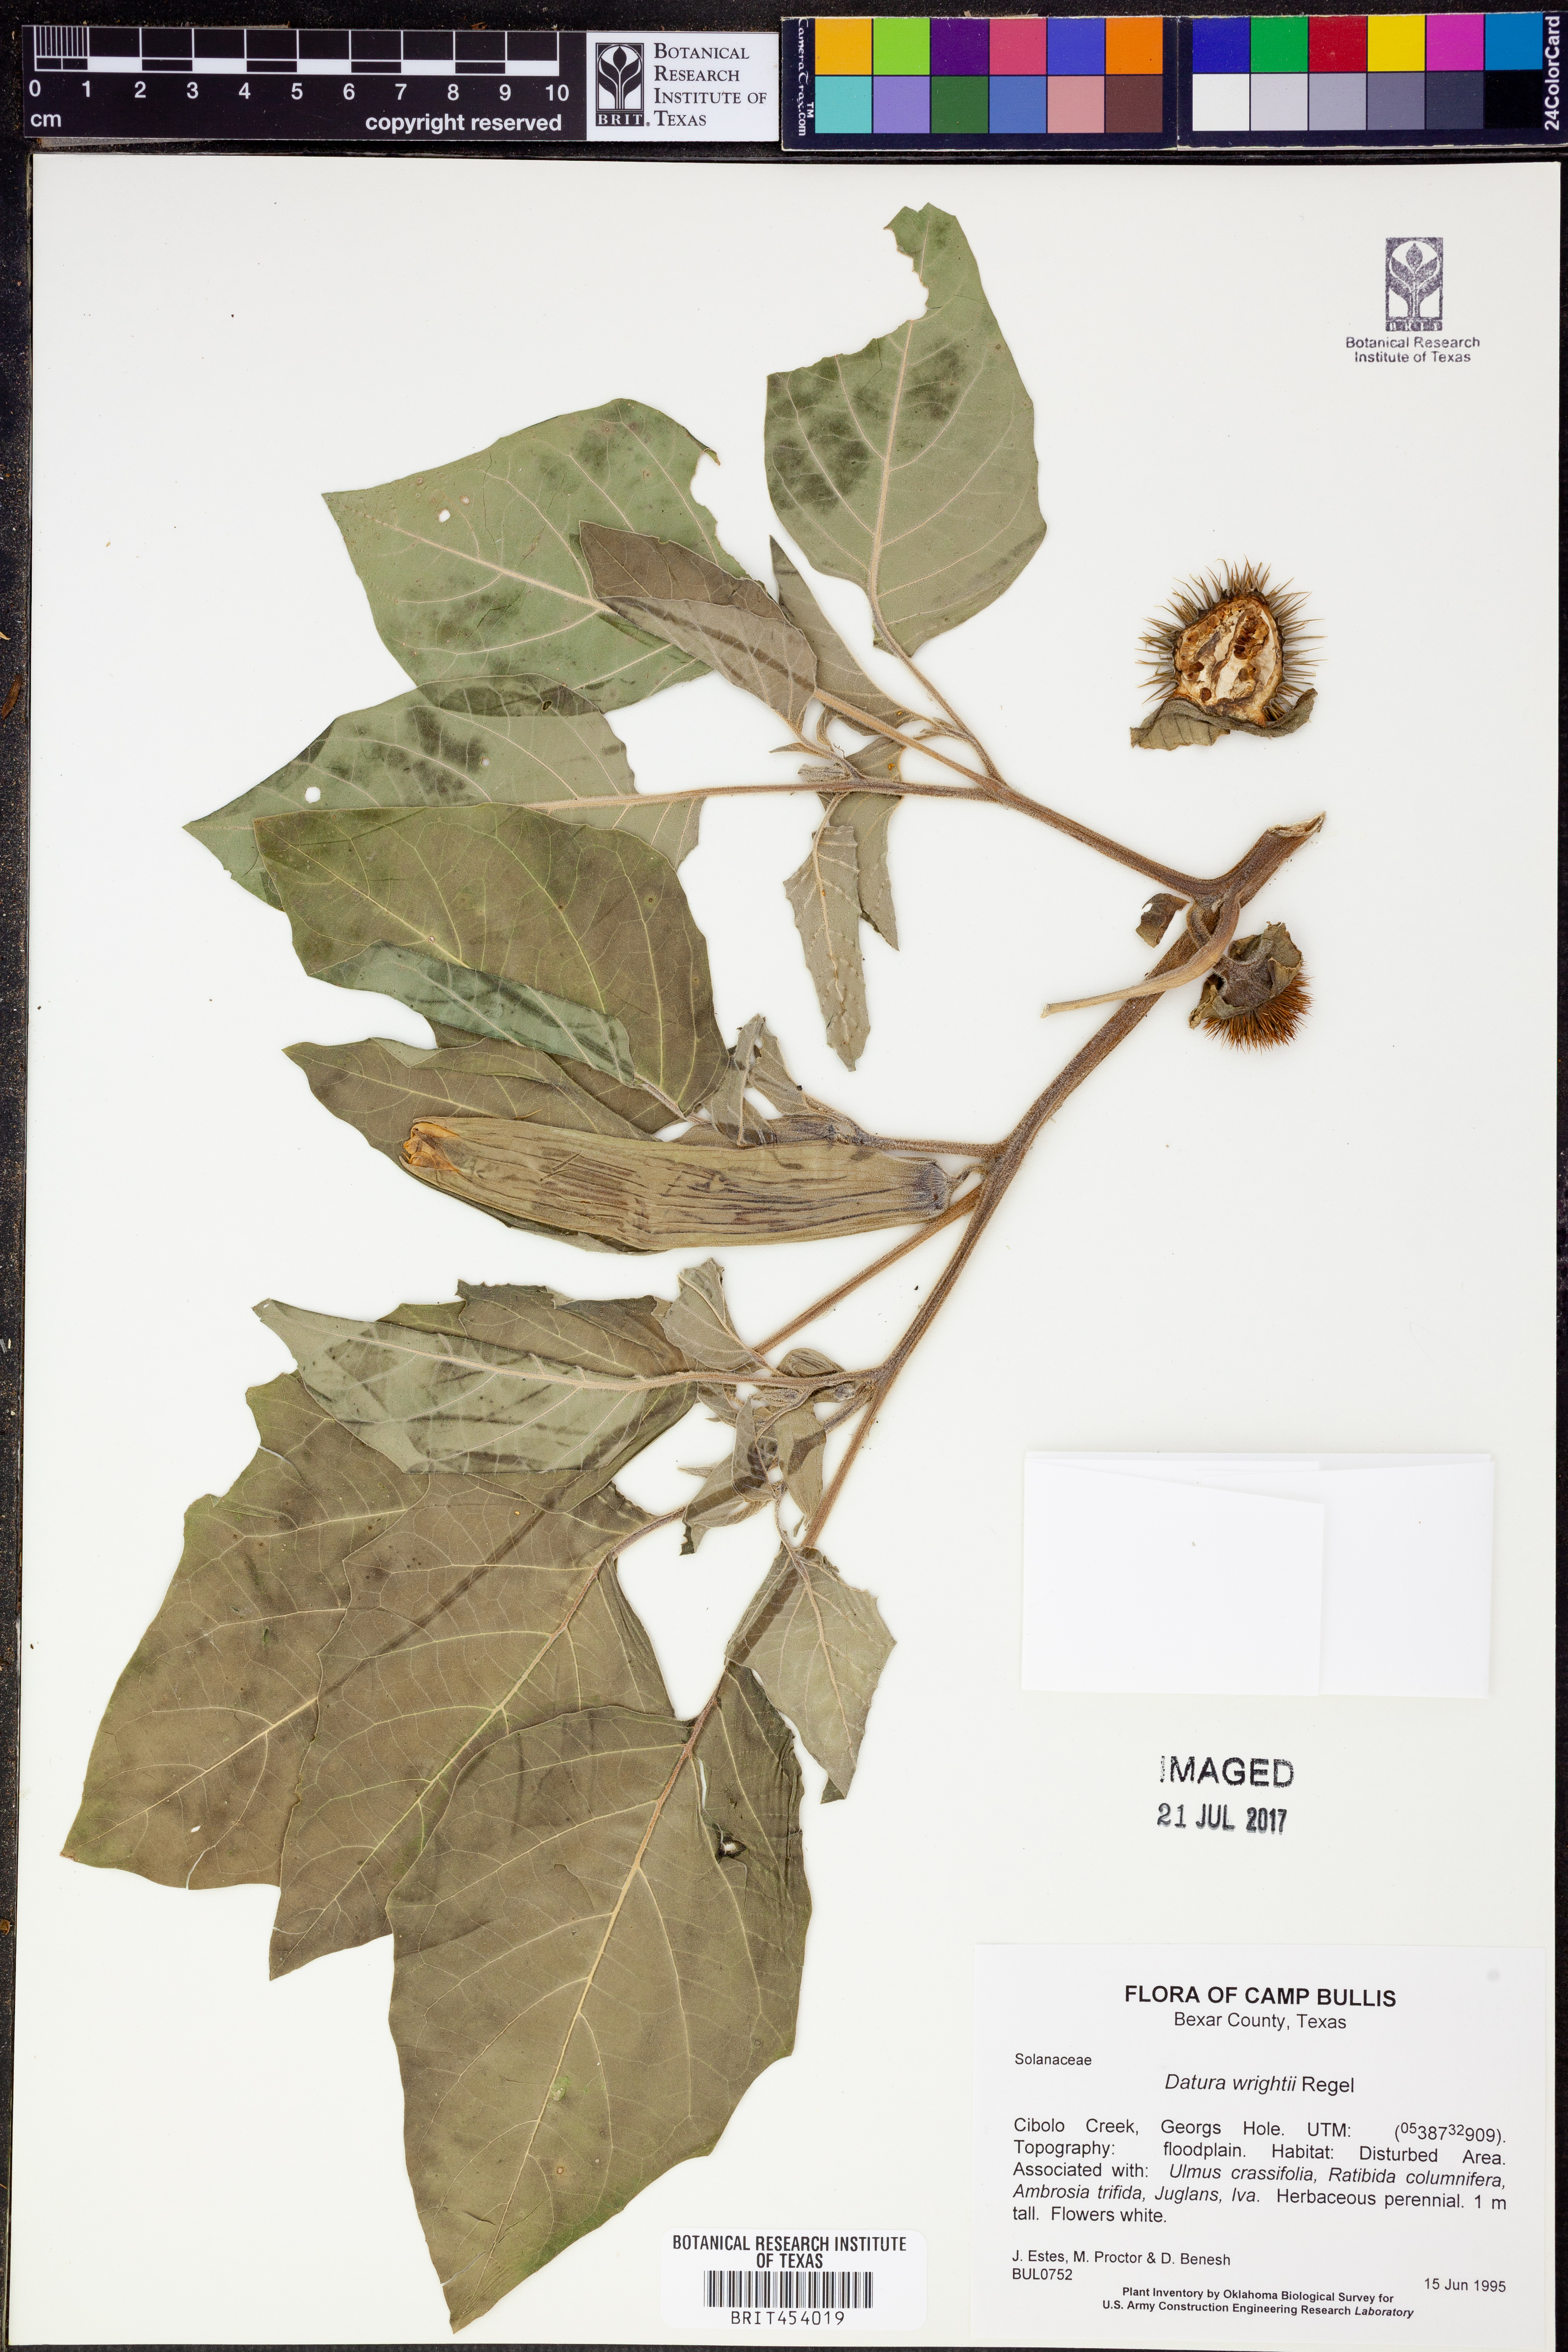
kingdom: Plantae
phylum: Tracheophyta
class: Magnoliopsida
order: Solanales
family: Solanaceae
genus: Datura
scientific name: Datura wrightii
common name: Sacred thorn-apple
